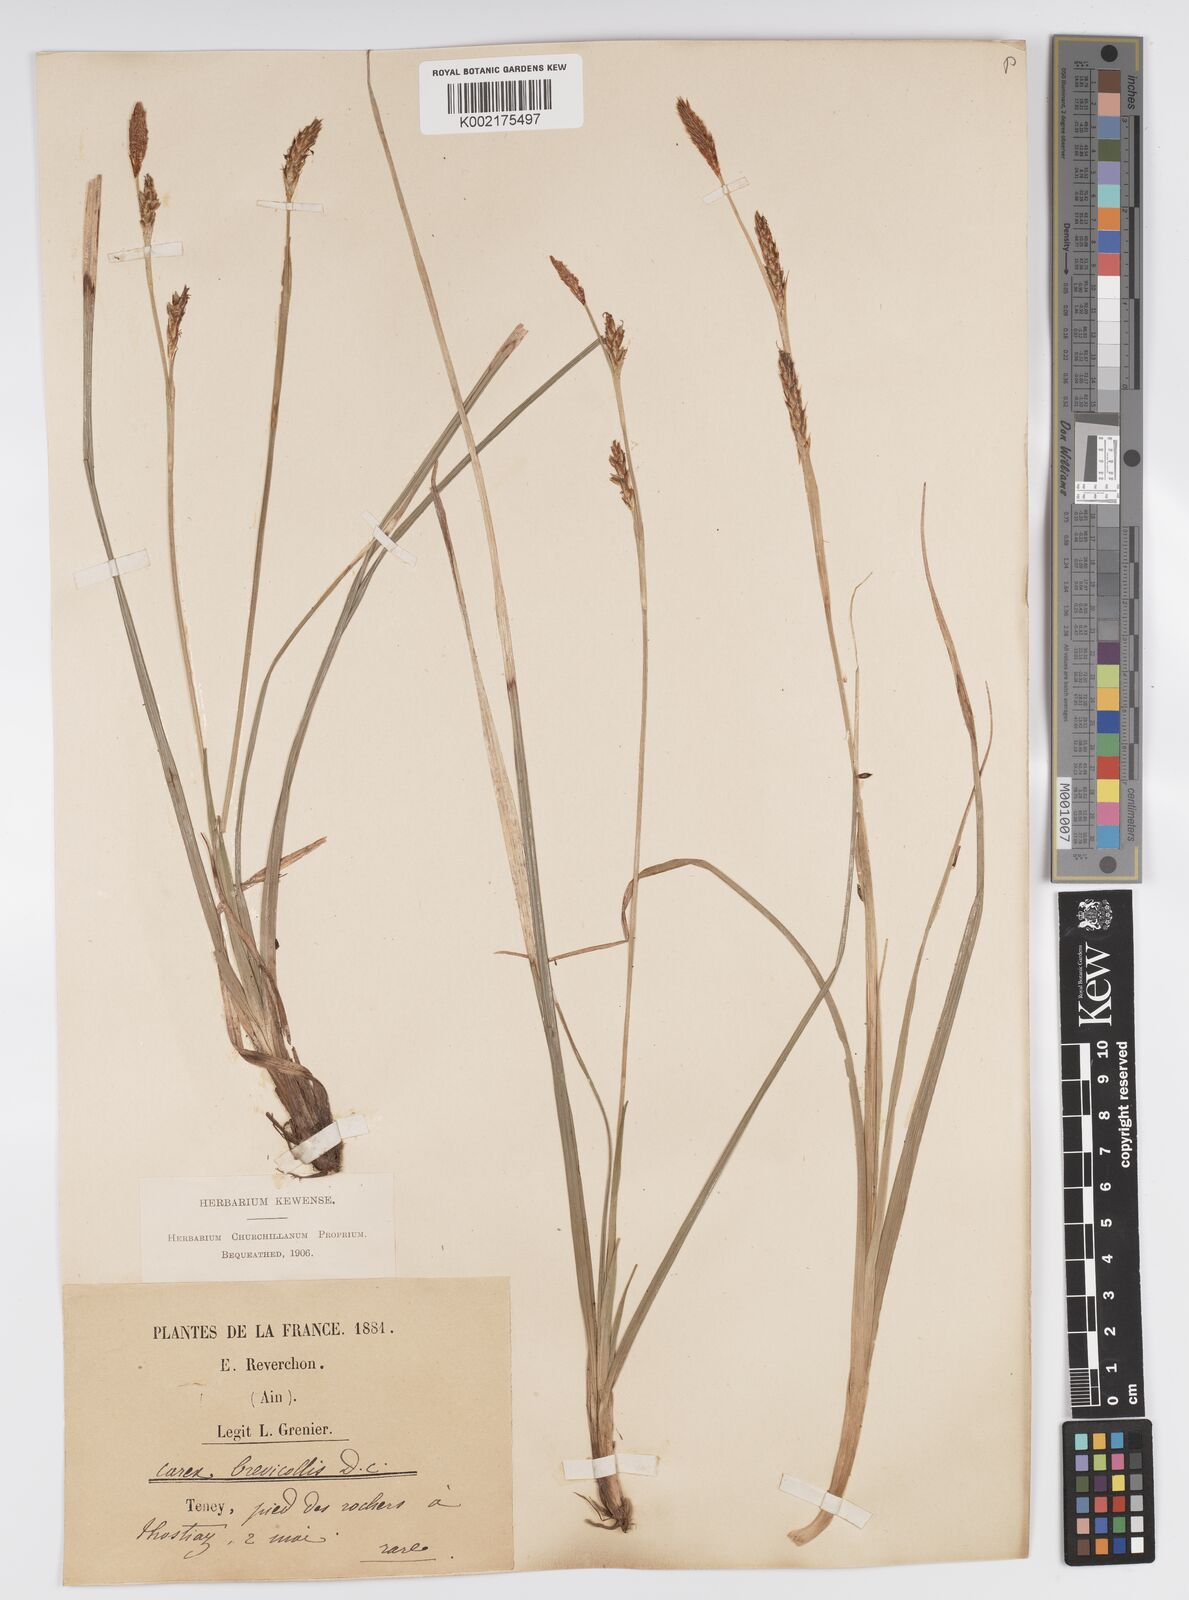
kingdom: Plantae
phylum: Tracheophyta
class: Liliopsida
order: Poales
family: Cyperaceae
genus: Carex
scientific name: Carex brevicollis
